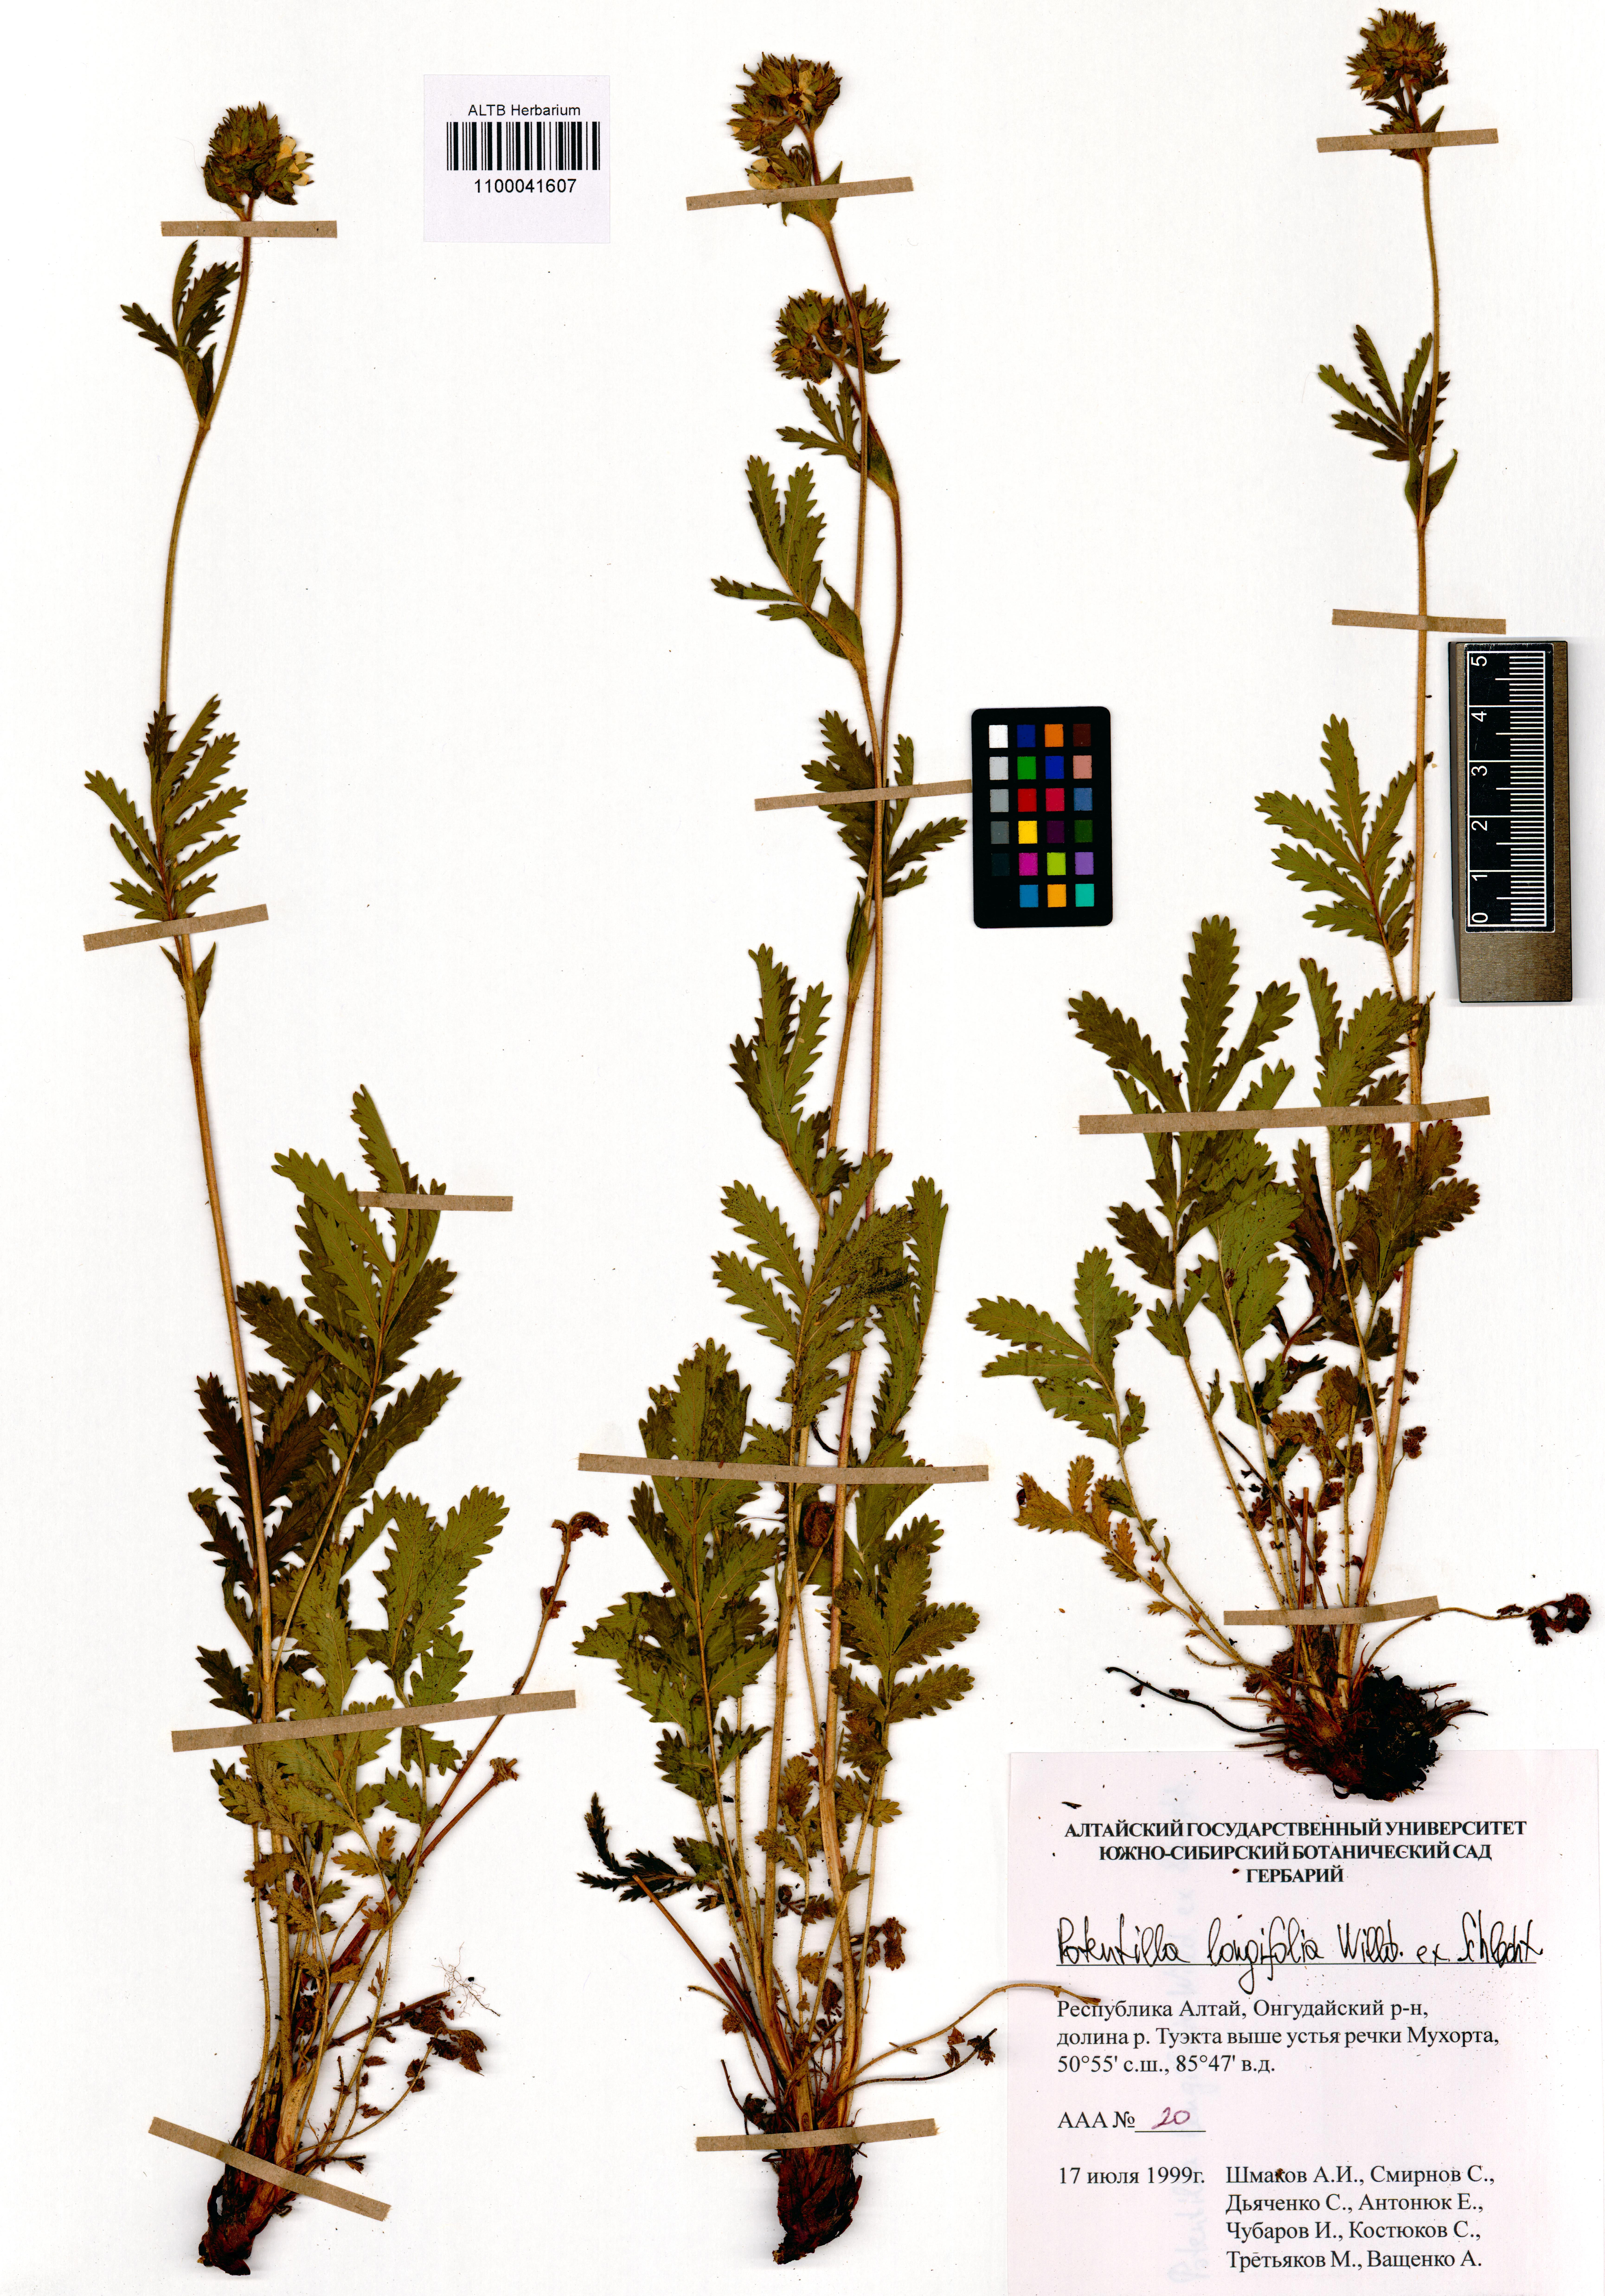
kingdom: Plantae
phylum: Tracheophyta
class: Magnoliopsida
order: Rosales
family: Rosaceae
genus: Potentilla
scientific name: Potentilla longifolia
